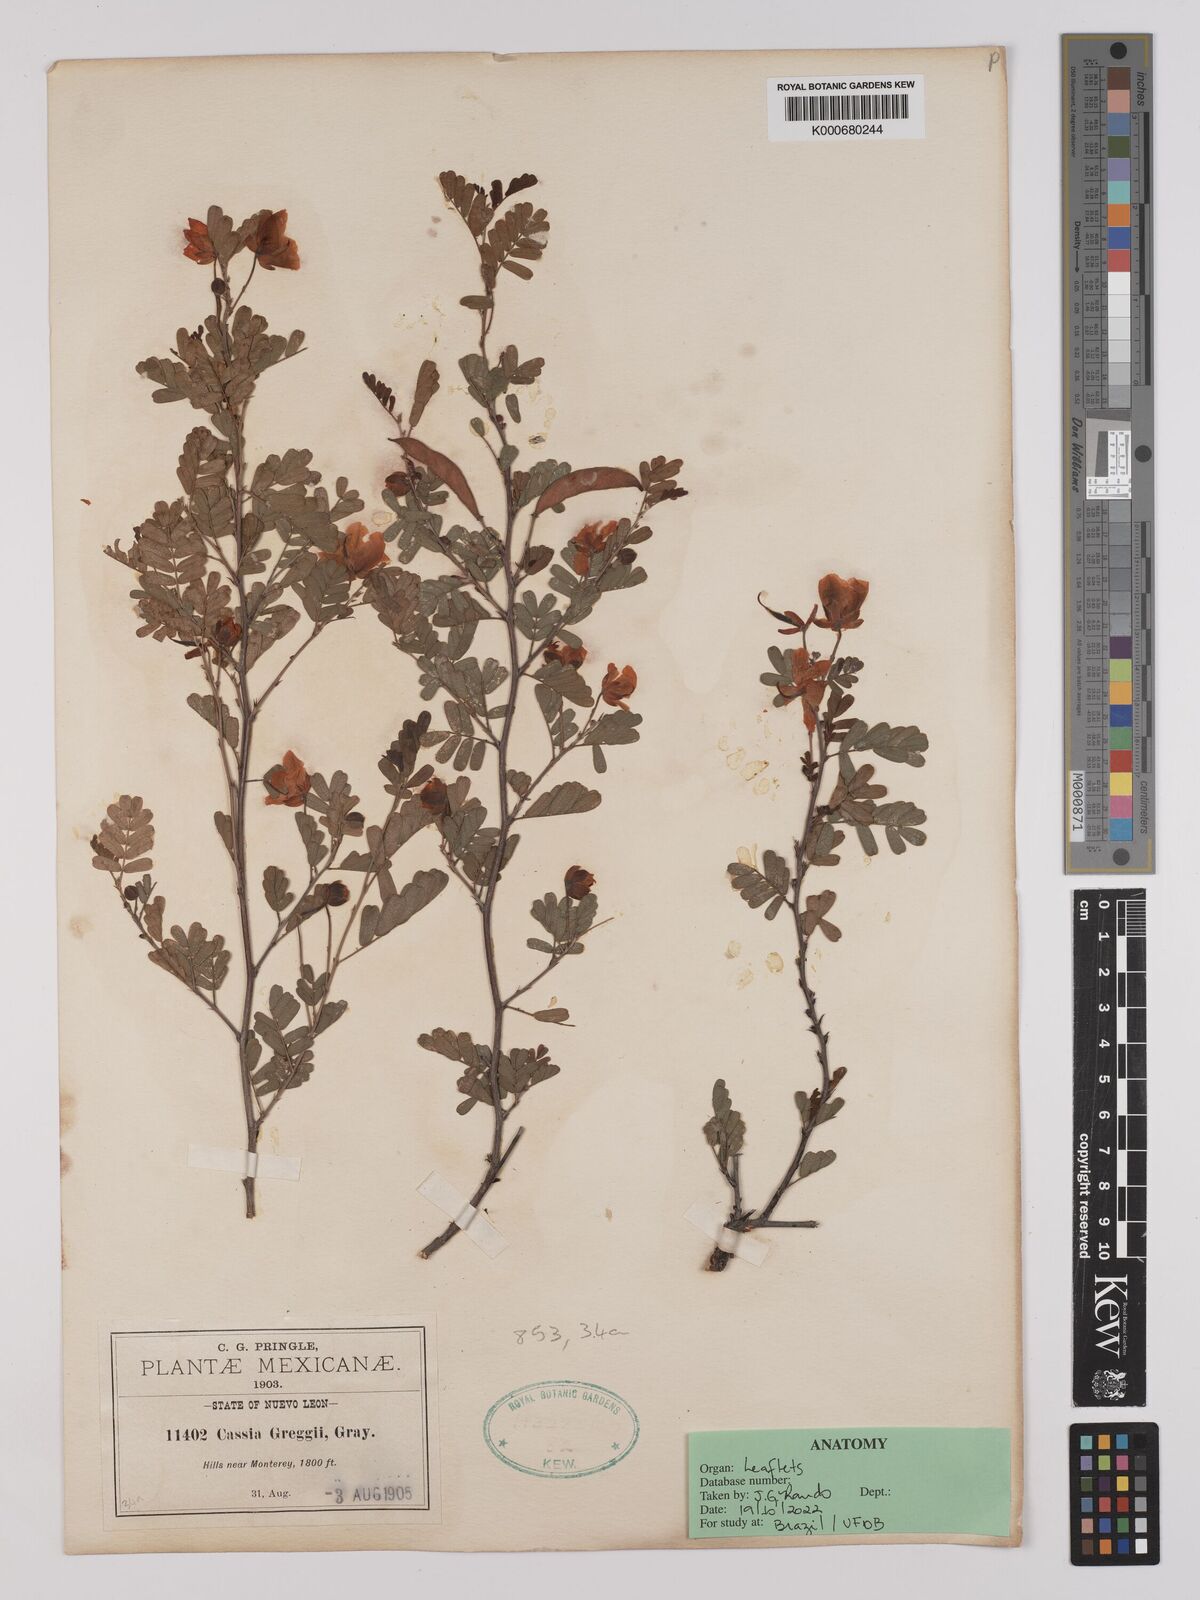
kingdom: Plantae
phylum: Tracheophyta
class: Magnoliopsida
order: Fabales
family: Fabaceae
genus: Chamaecrista
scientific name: Chamaecrista greggii
